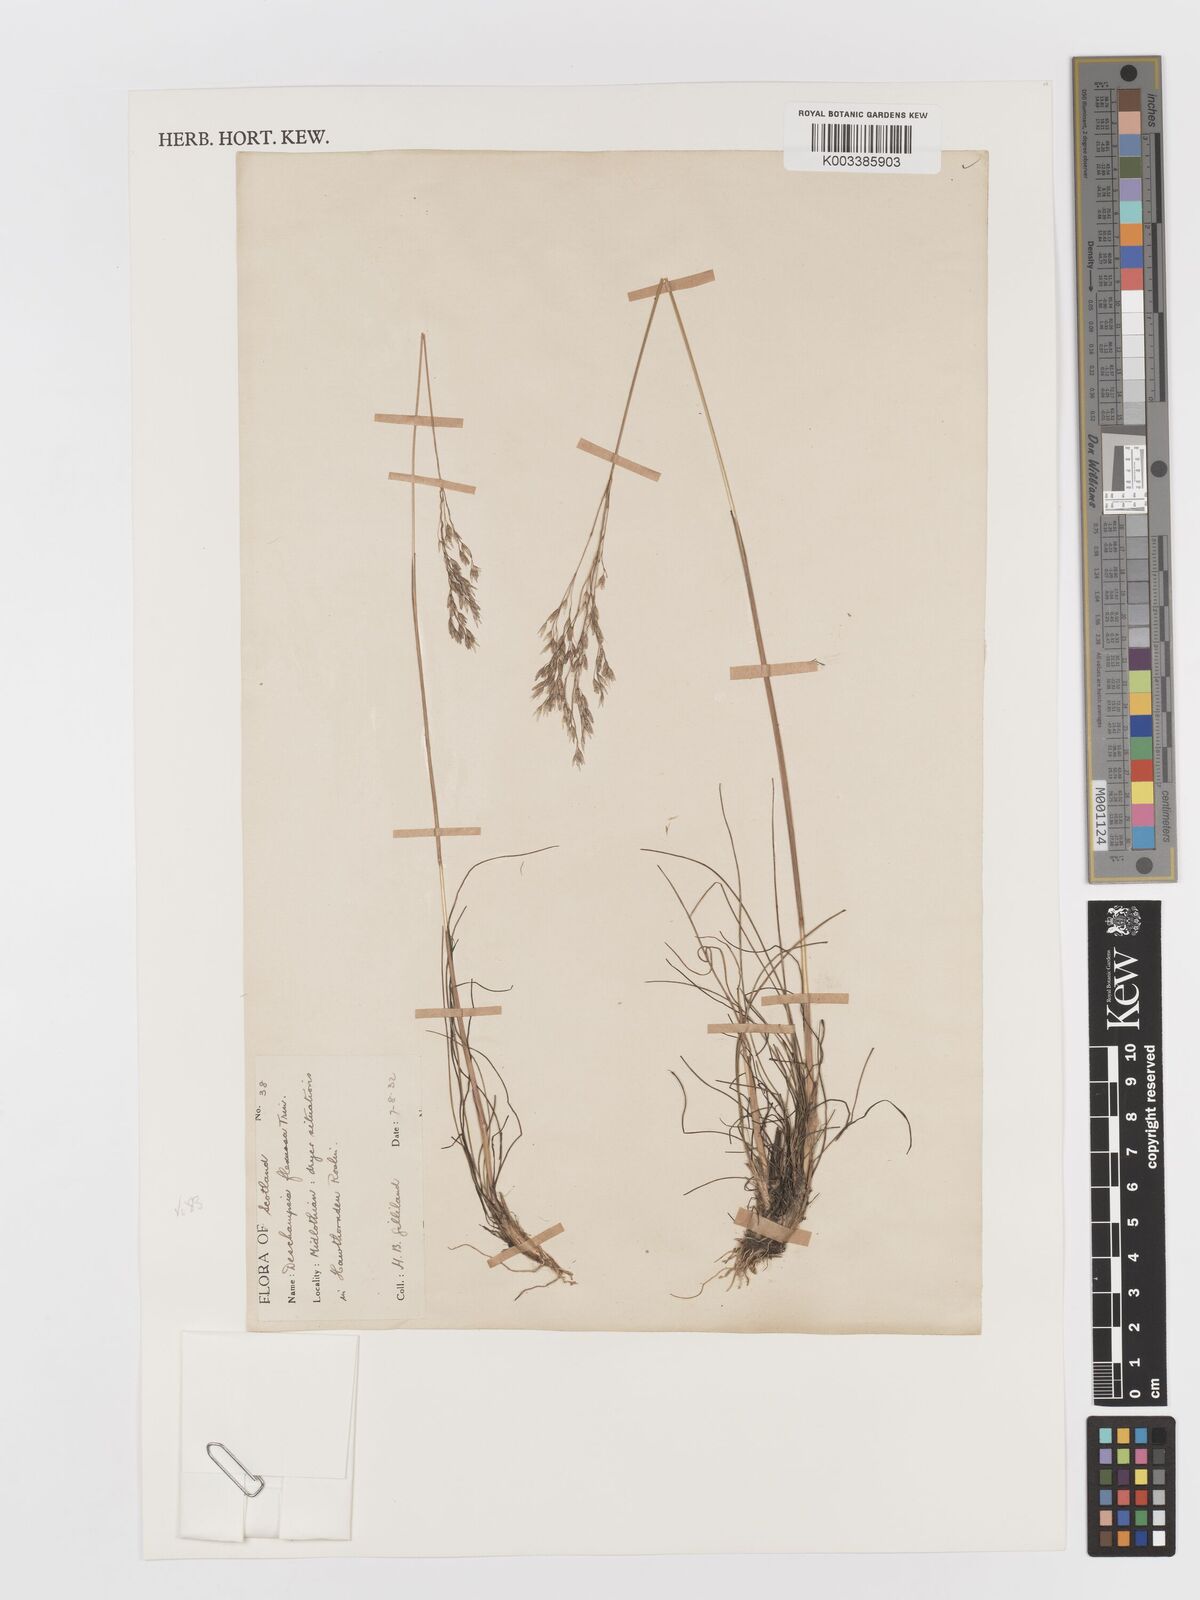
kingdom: Plantae
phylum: Tracheophyta
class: Liliopsida
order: Poales
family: Poaceae
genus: Avenella
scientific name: Avenella flexuosa
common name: Wavy hairgrass
